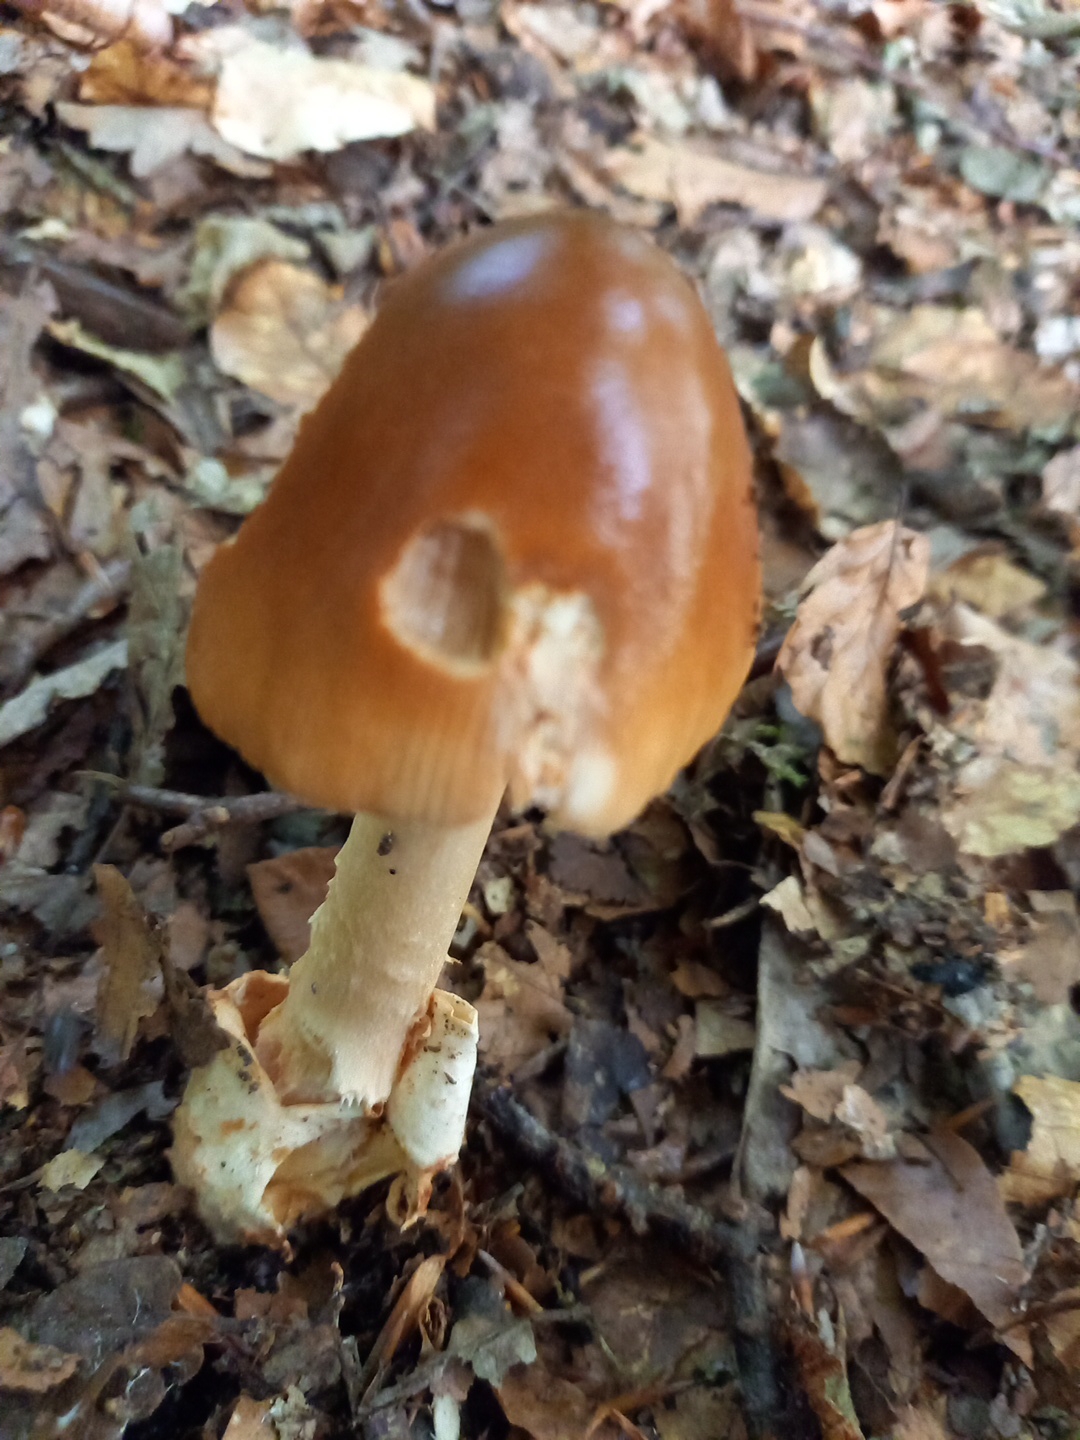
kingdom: Fungi
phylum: Basidiomycota
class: Agaricomycetes
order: Agaricales
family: Amanitaceae
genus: Amanita
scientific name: Amanita fulva
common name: brun kam-fluesvamp
